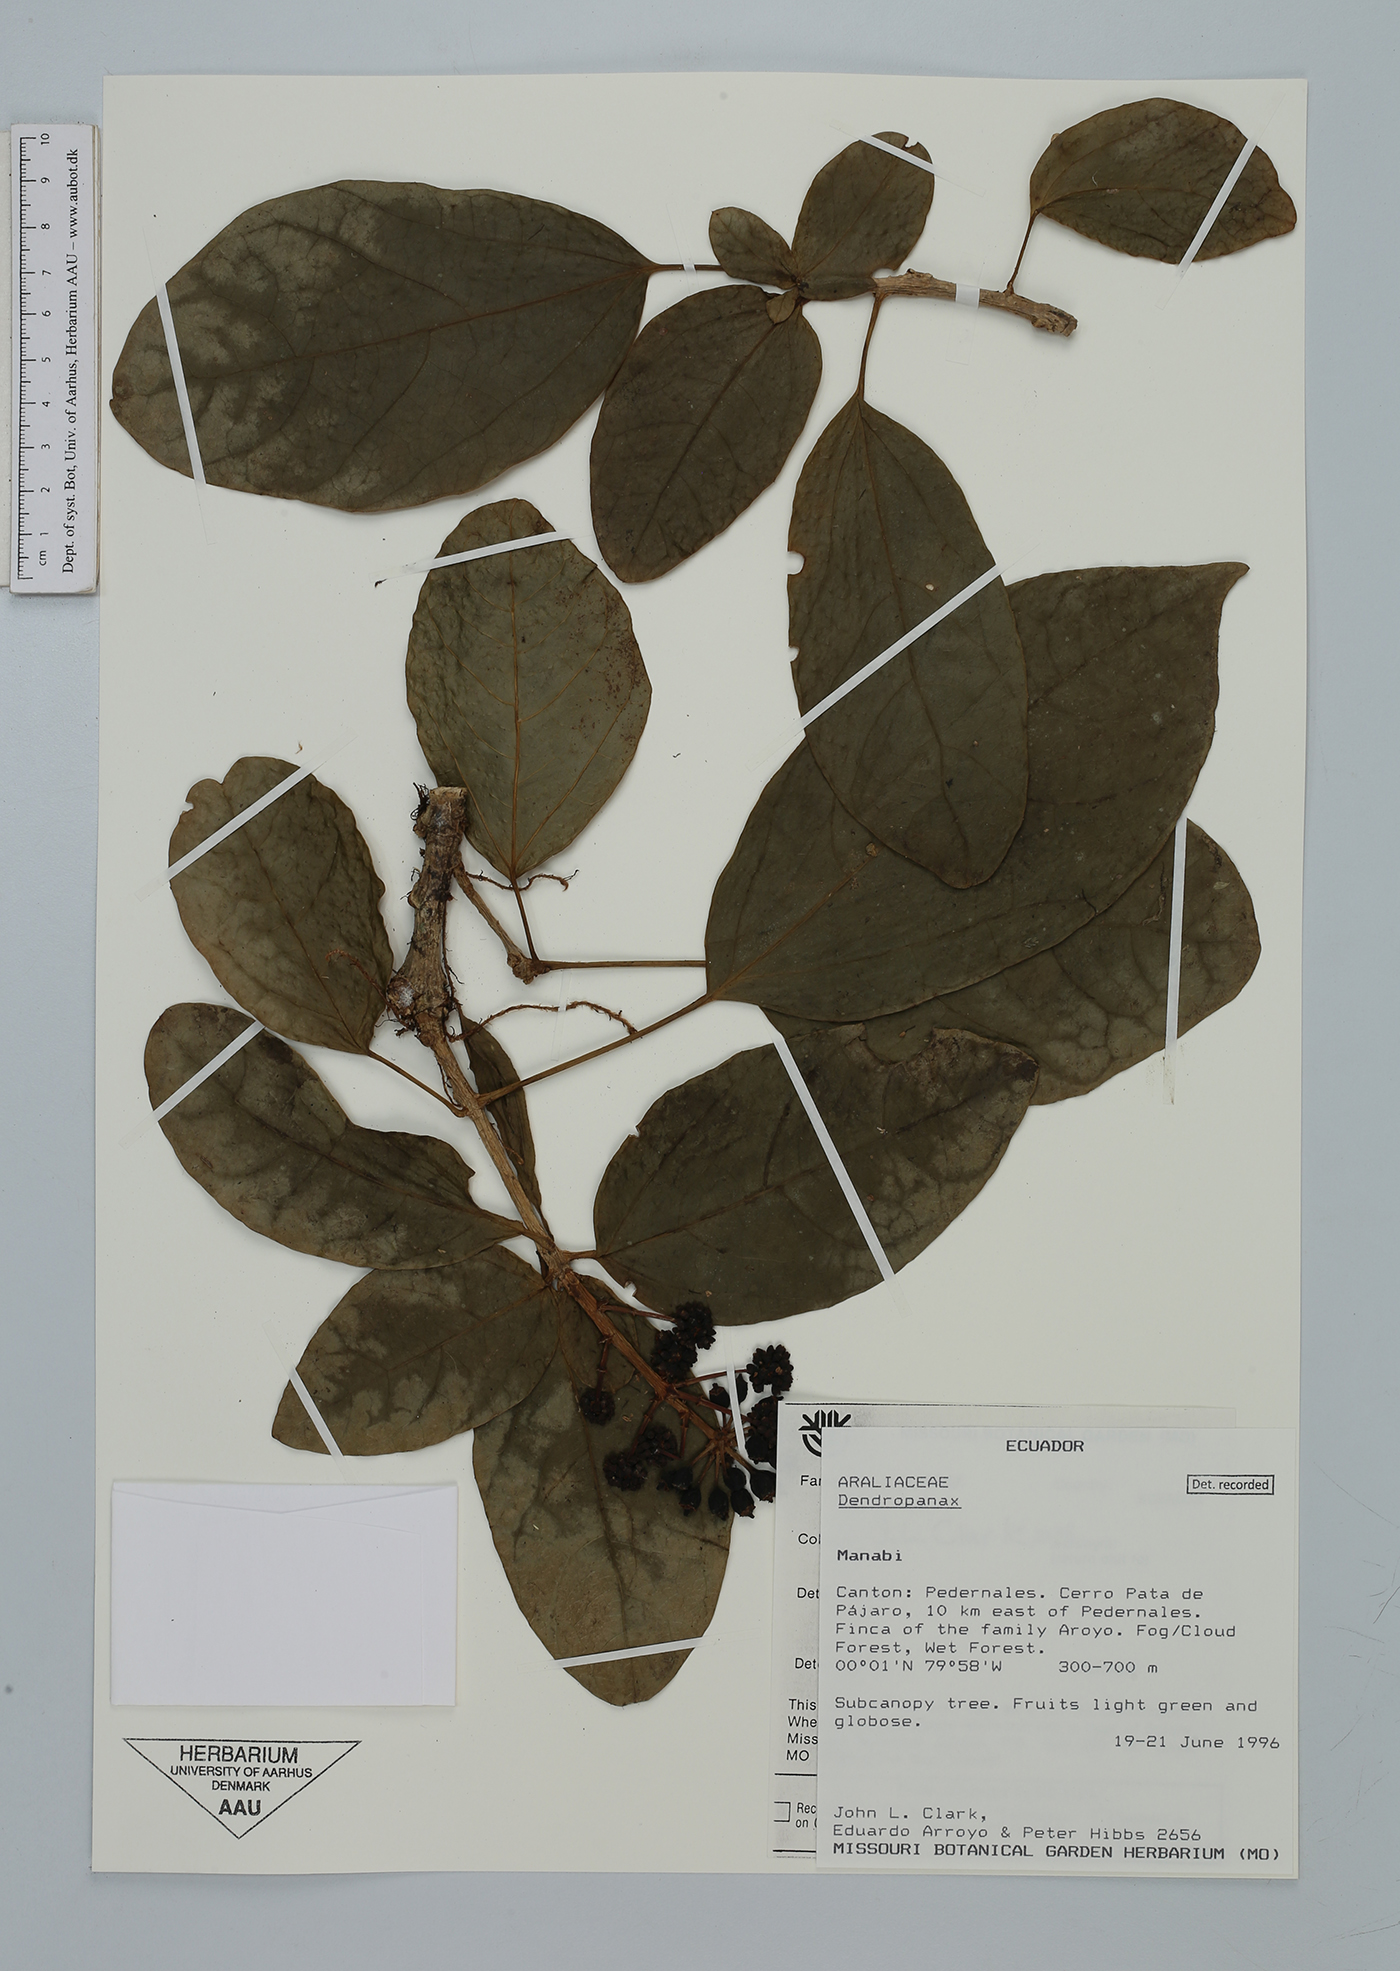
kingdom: Plantae
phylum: Tracheophyta
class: Magnoliopsida
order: Apiales
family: Araliaceae
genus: Dendropanax
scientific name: Dendropanax
